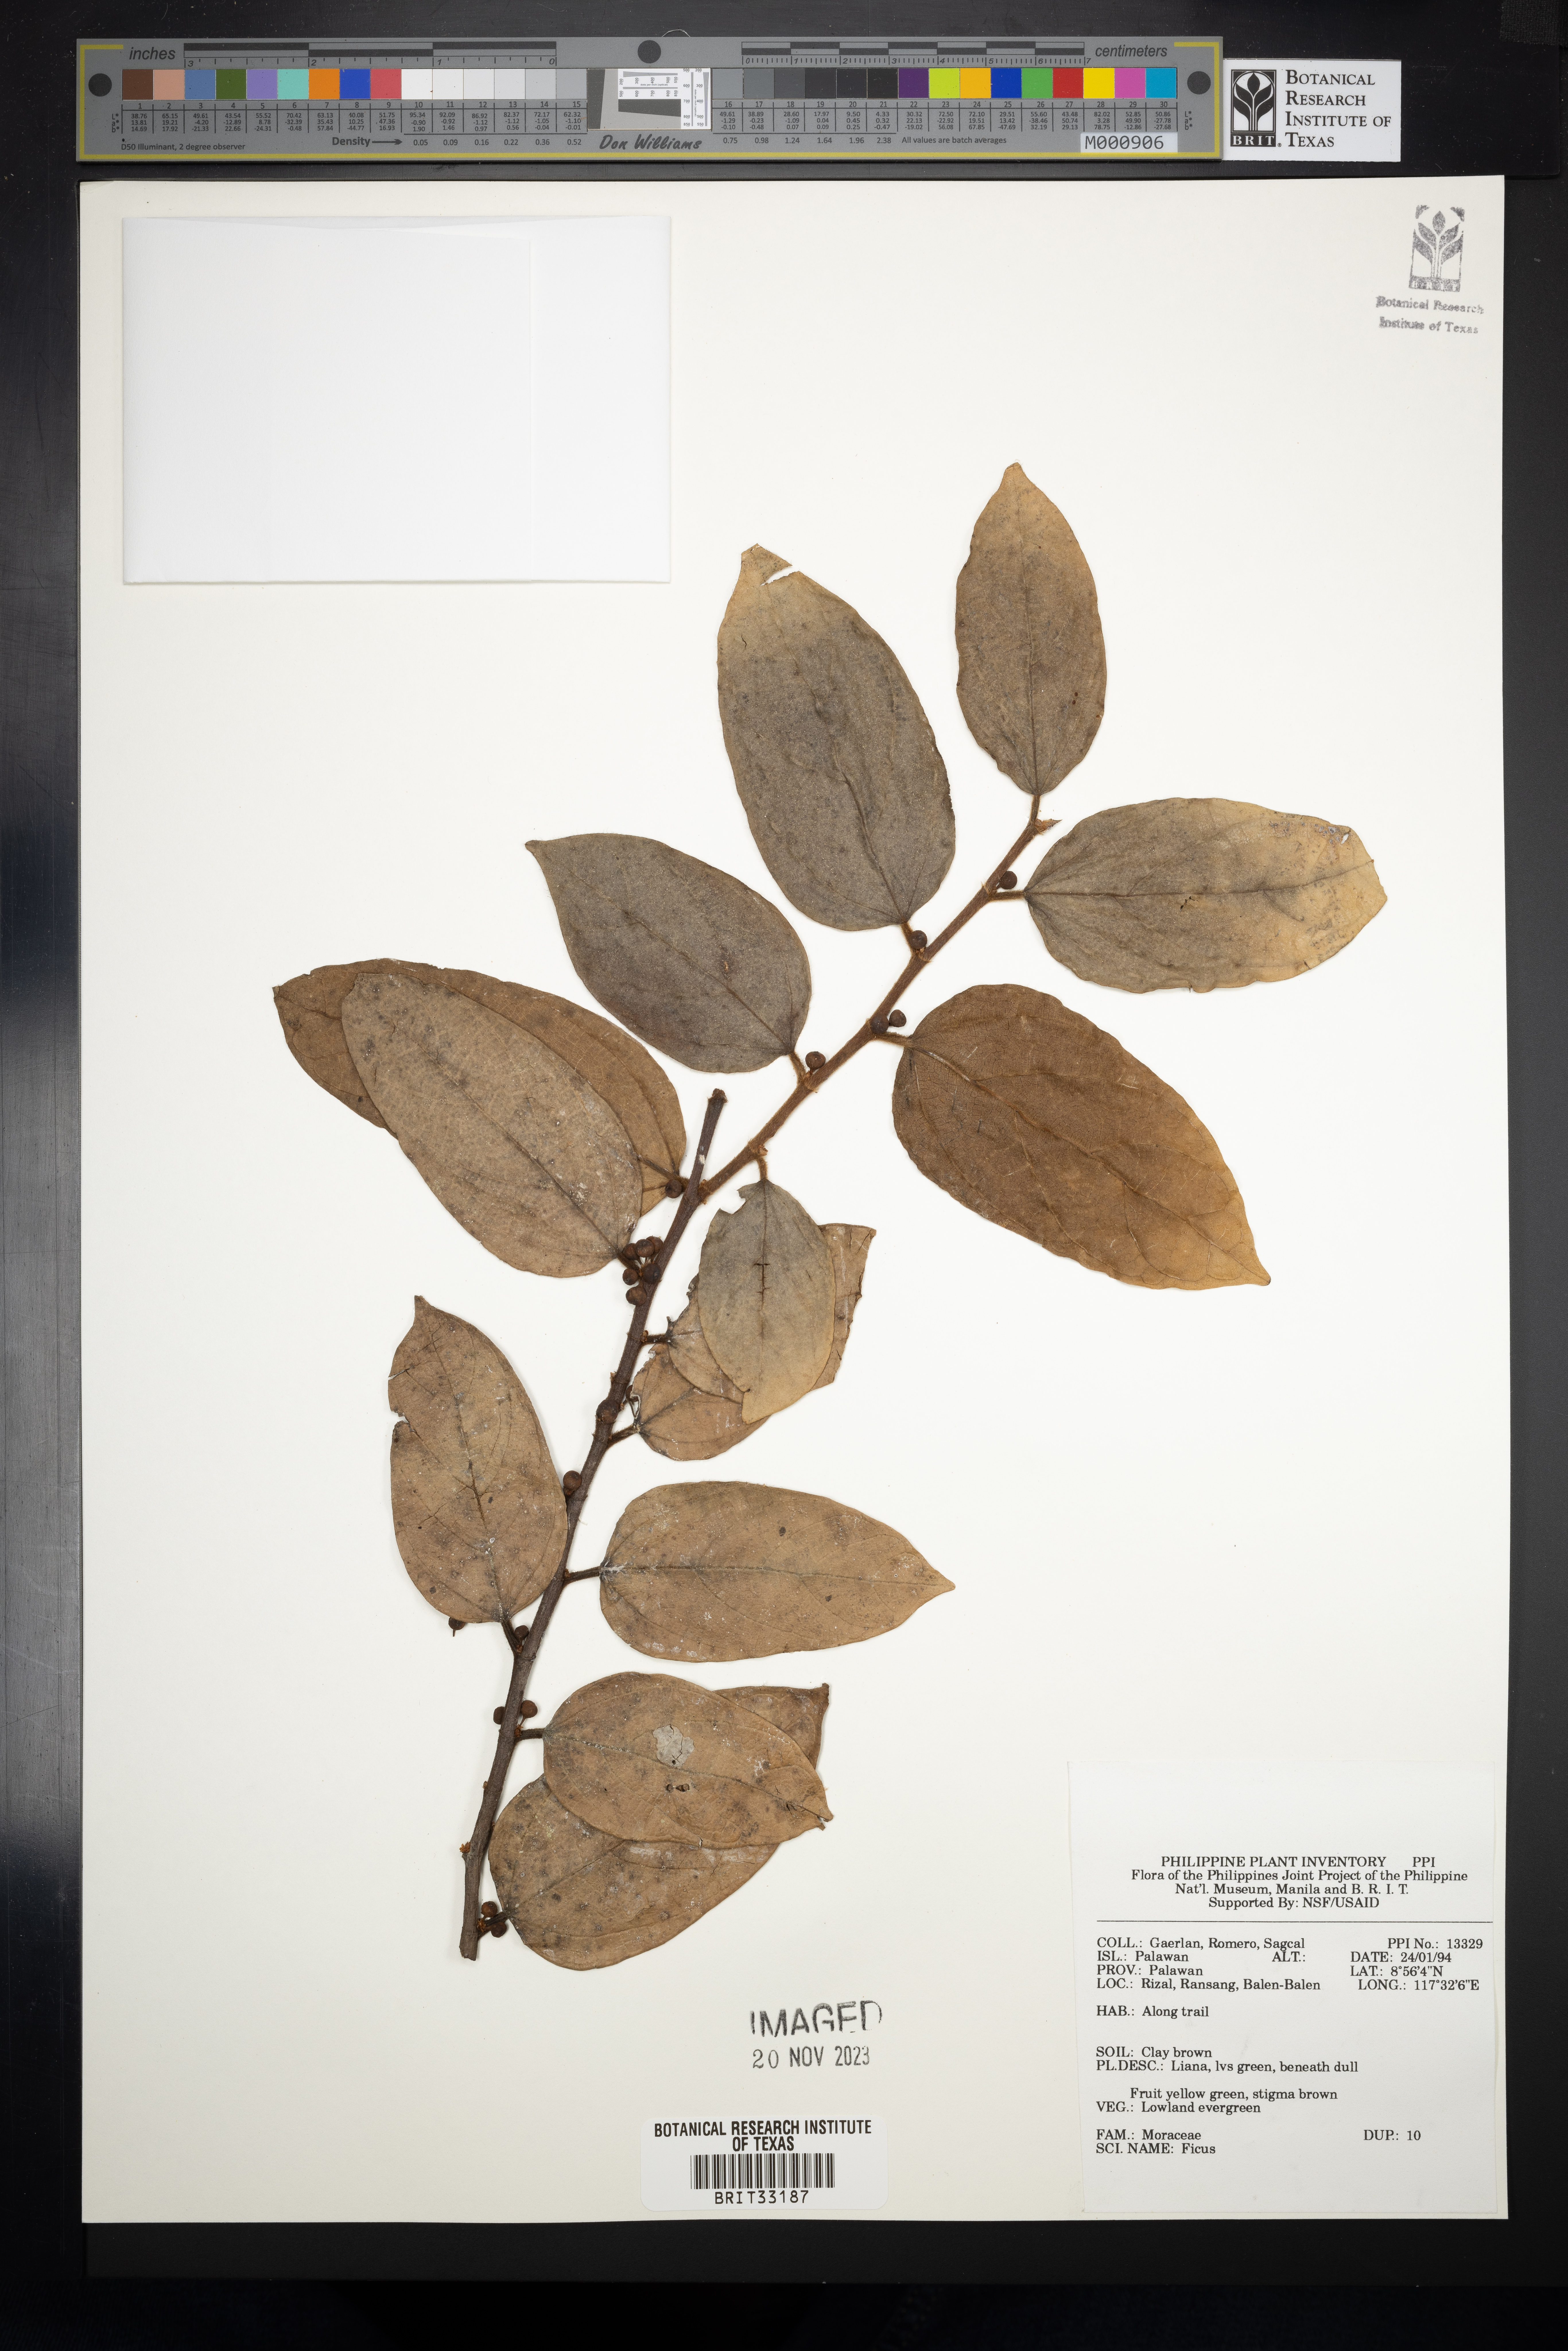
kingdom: Plantae
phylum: Tracheophyta
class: Magnoliopsida
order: Rosales
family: Moraceae
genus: Ficus
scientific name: Ficus
